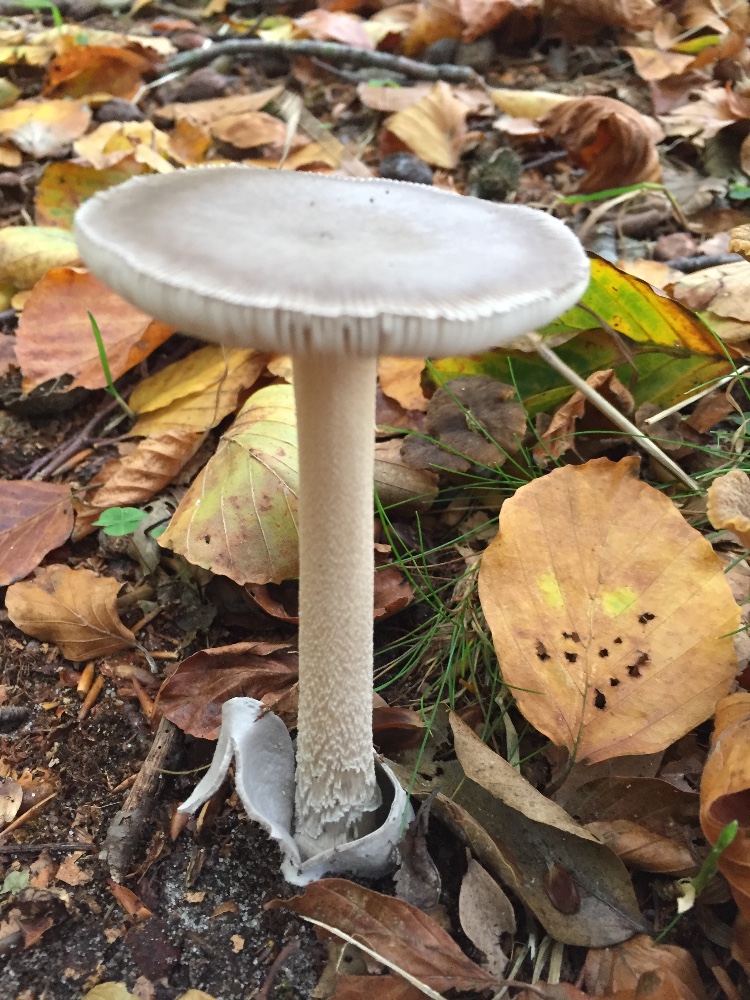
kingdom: Fungi
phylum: Basidiomycota
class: Agaricomycetes
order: Agaricales
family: Amanitaceae
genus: Amanita
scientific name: Amanita vaginata
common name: grå kam-fluesvamp
